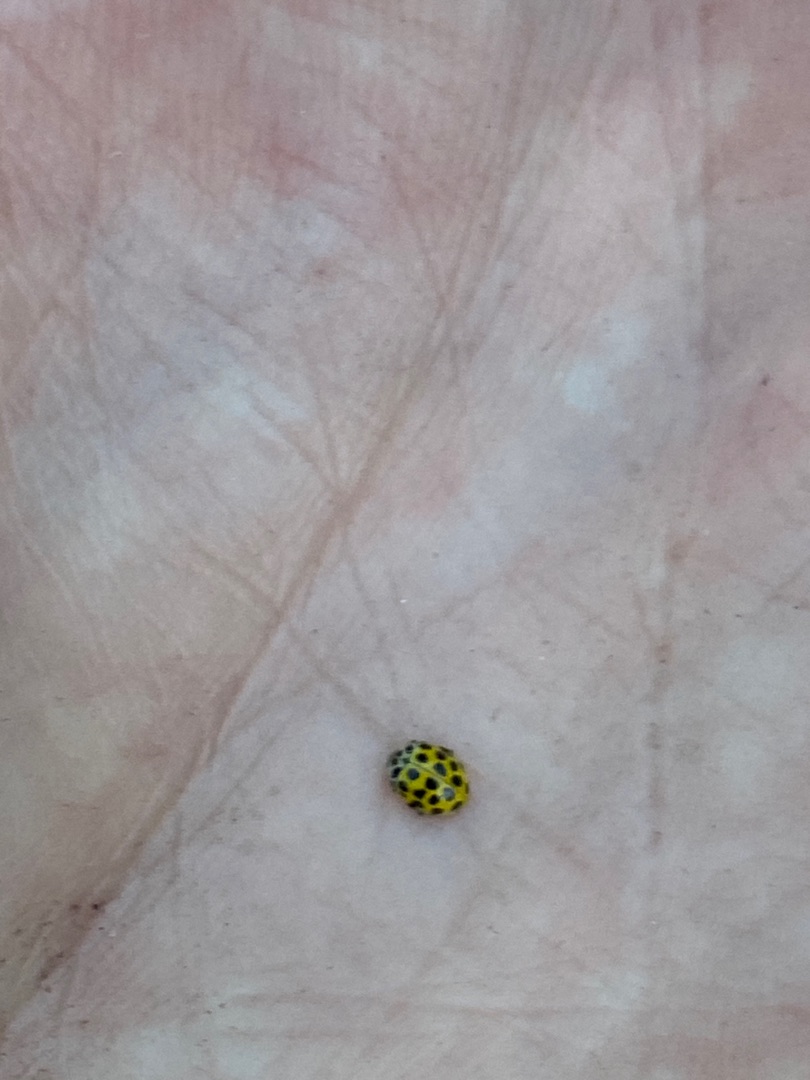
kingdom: Animalia
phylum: Arthropoda
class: Insecta
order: Coleoptera
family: Coccinellidae
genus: Psyllobora
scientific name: Psyllobora vigintiduopunctata
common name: Toogtyveplettet mariehøne
